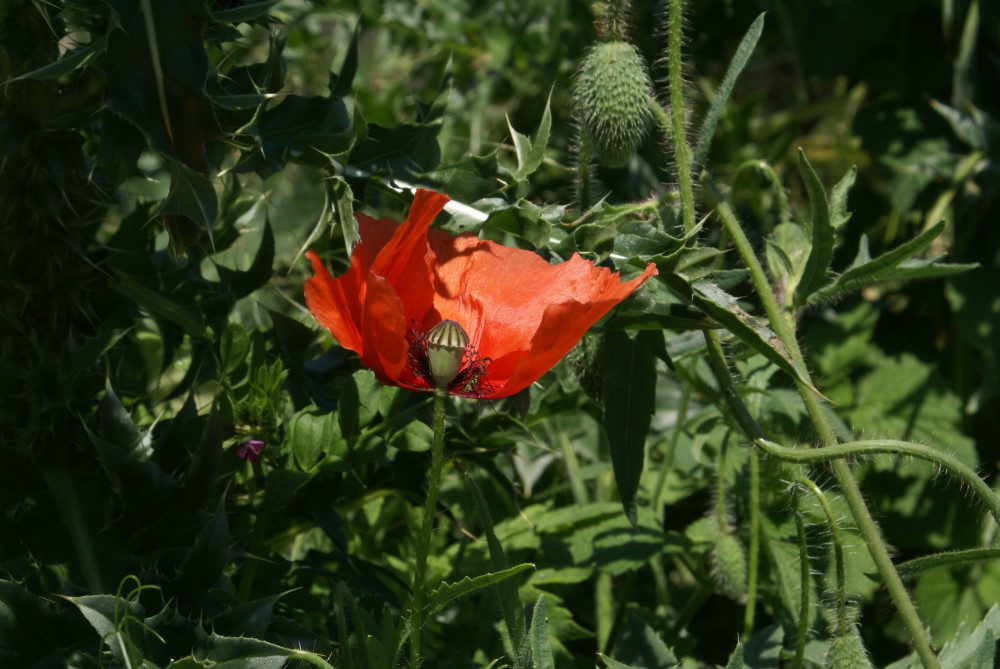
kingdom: Plantae
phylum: Tracheophyta
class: Magnoliopsida
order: Ranunculales
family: Papaveraceae
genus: Papaver
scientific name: Papaver rhoeas
